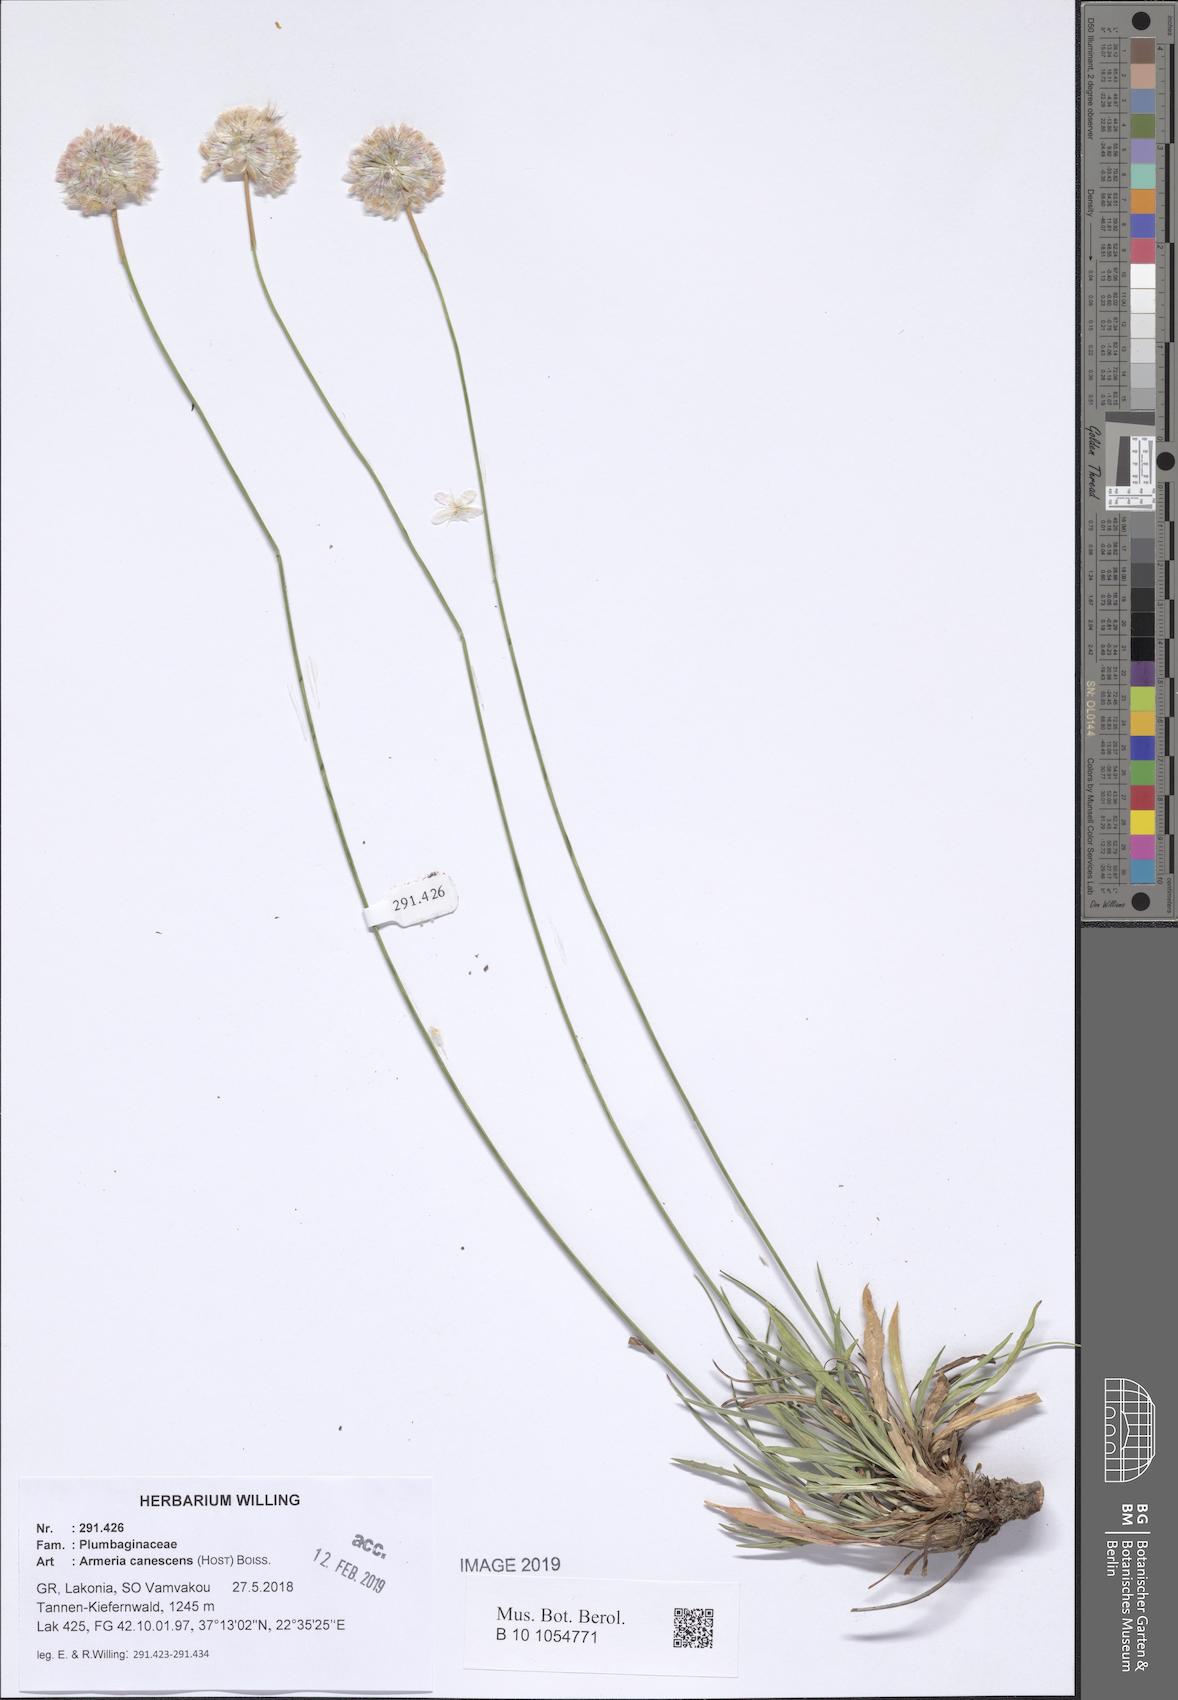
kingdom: Plantae
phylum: Tracheophyta
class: Magnoliopsida
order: Caryophyllales
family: Plumbaginaceae
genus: Armeria
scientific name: Armeria canescens
